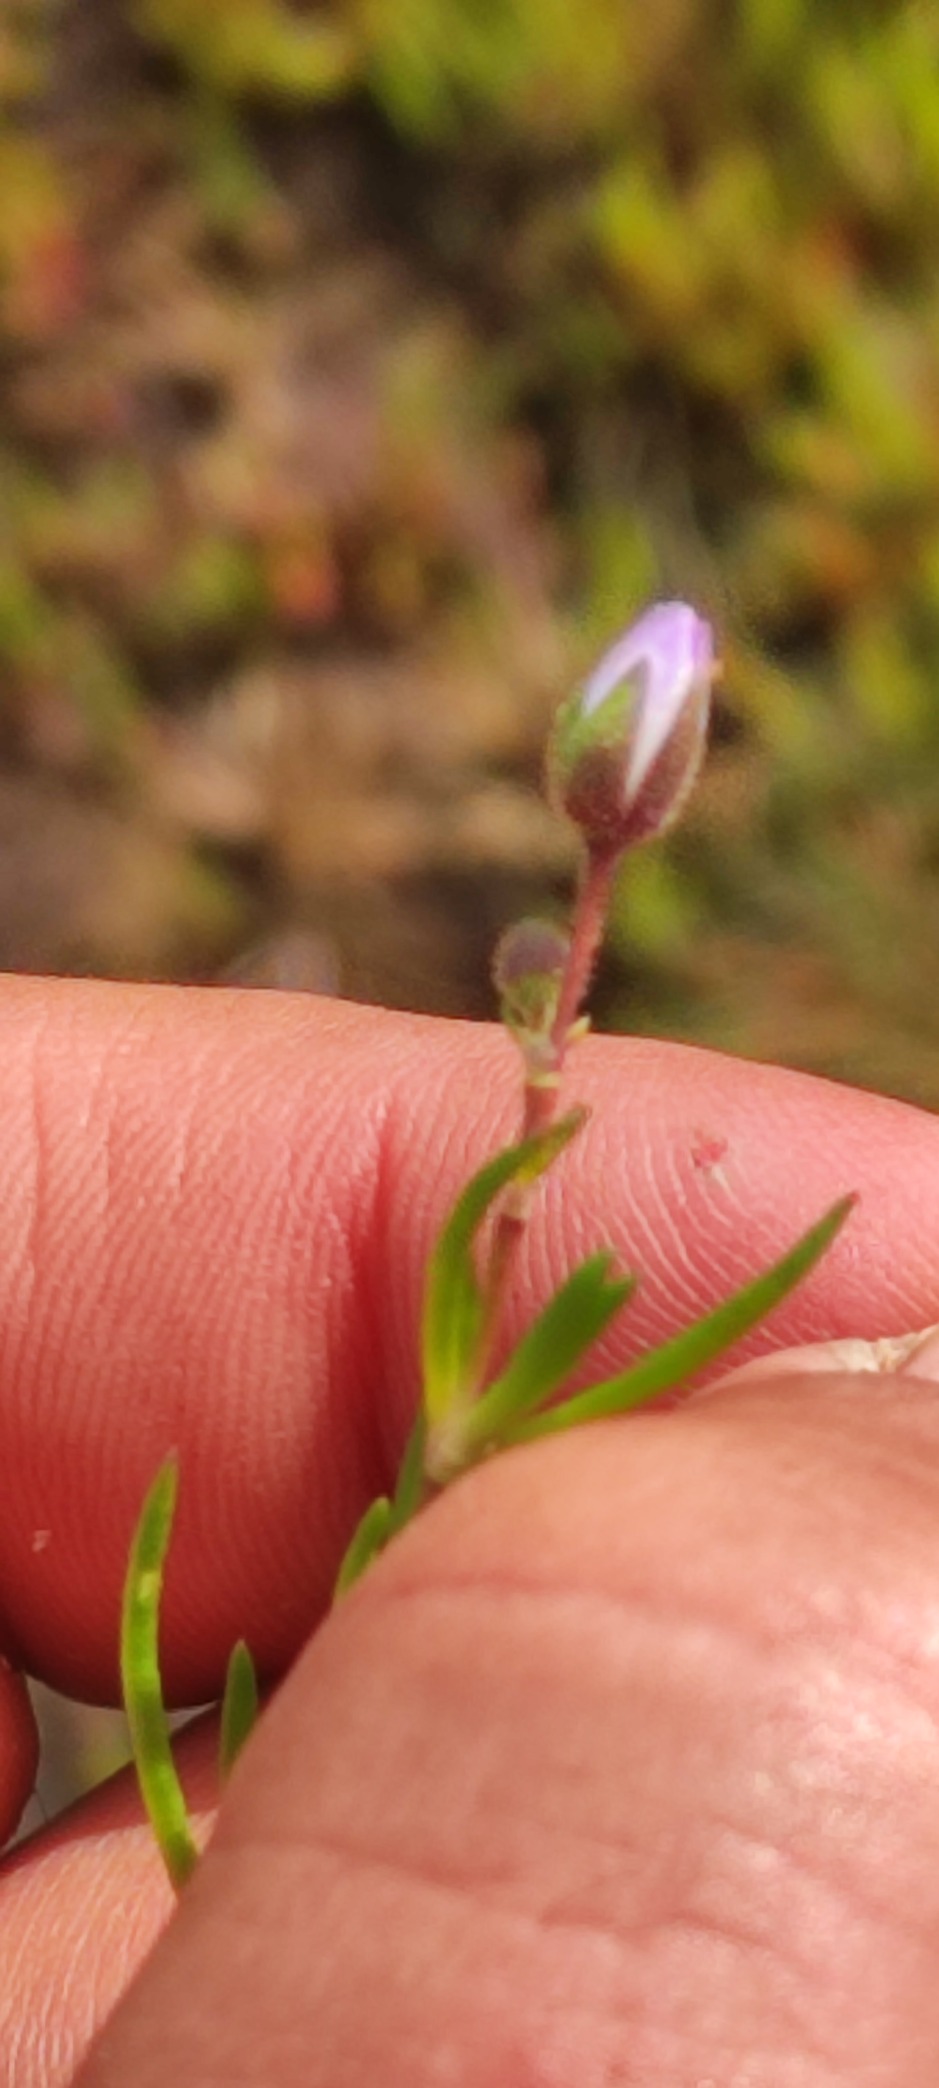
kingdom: Plantae
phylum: Tracheophyta
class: Magnoliopsida
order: Caryophyllales
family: Caryophyllaceae
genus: Spergularia
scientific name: Spergularia media
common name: Vingefrøet hindeknæ
